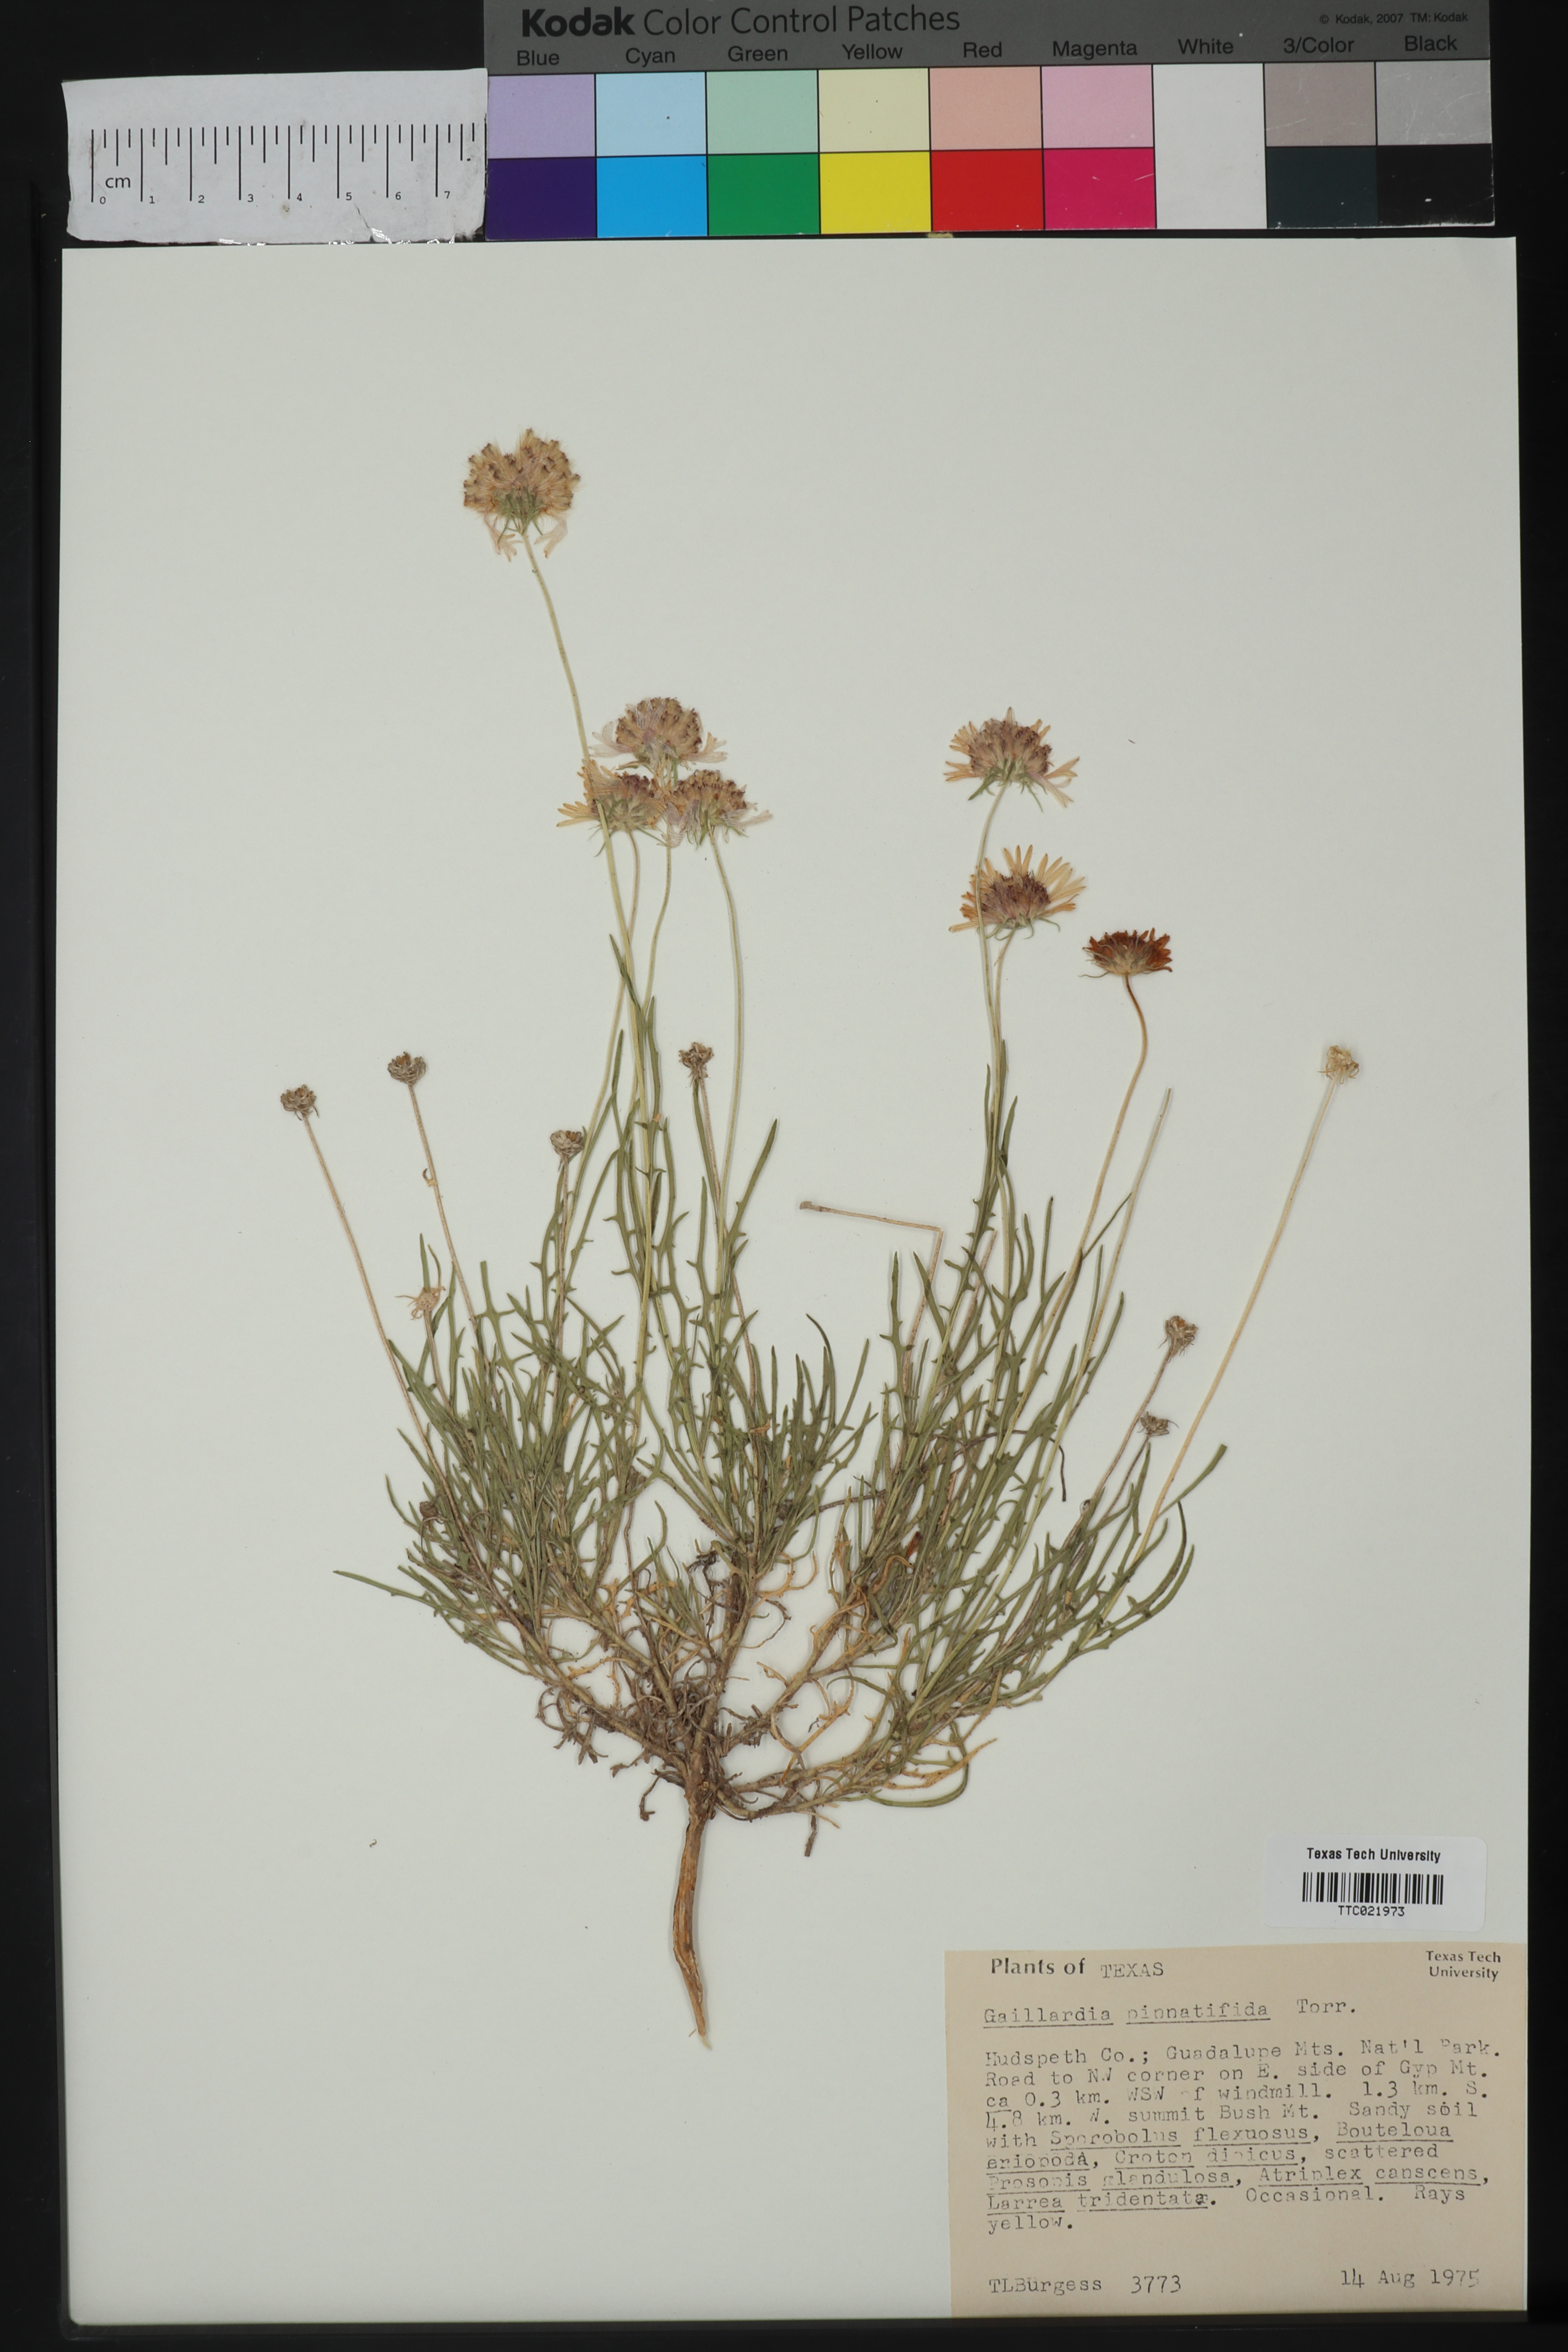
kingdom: Plantae
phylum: Tracheophyta
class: Magnoliopsida
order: Asterales
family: Asteraceae
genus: Gaillardia
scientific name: Gaillardia pinnatifida
